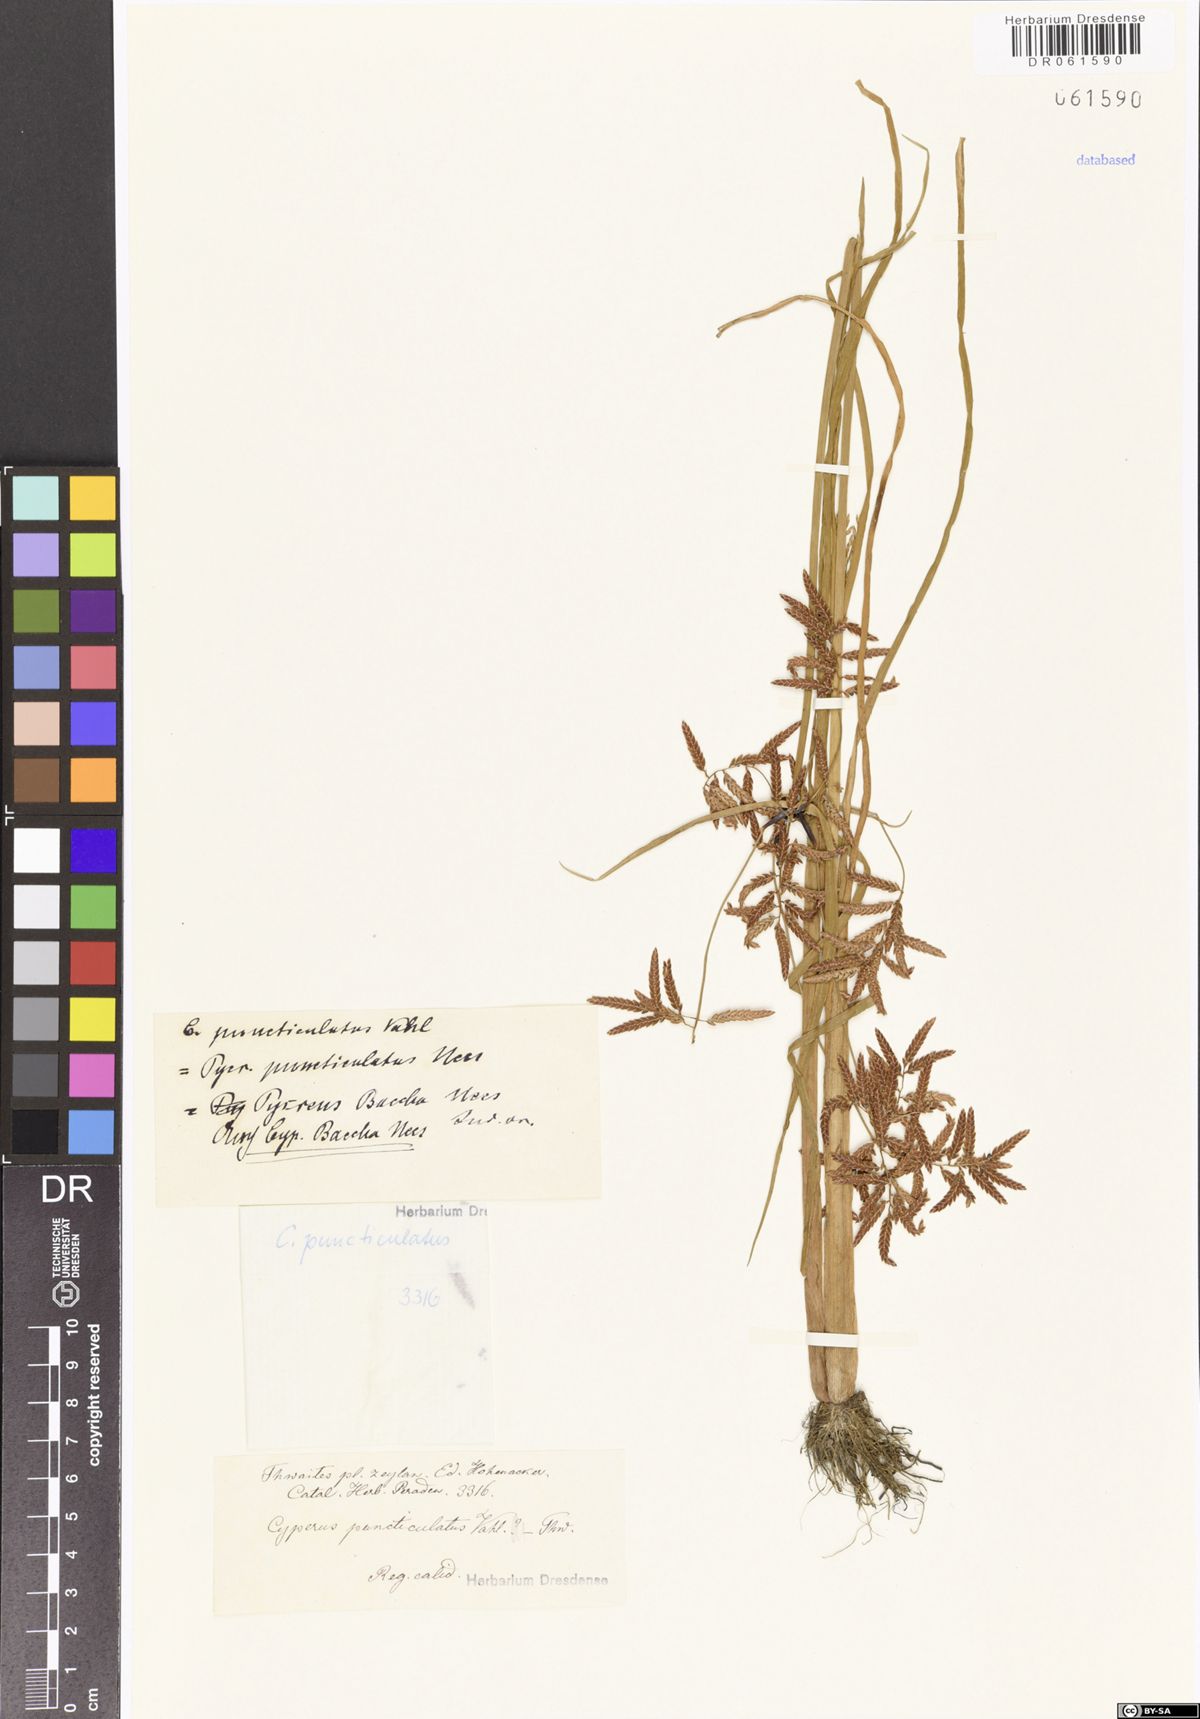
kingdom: Plantae
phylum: Tracheophyta
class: Liliopsida
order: Poales
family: Cyperaceae
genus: Cyperus
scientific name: Cyperus puncticulatus
